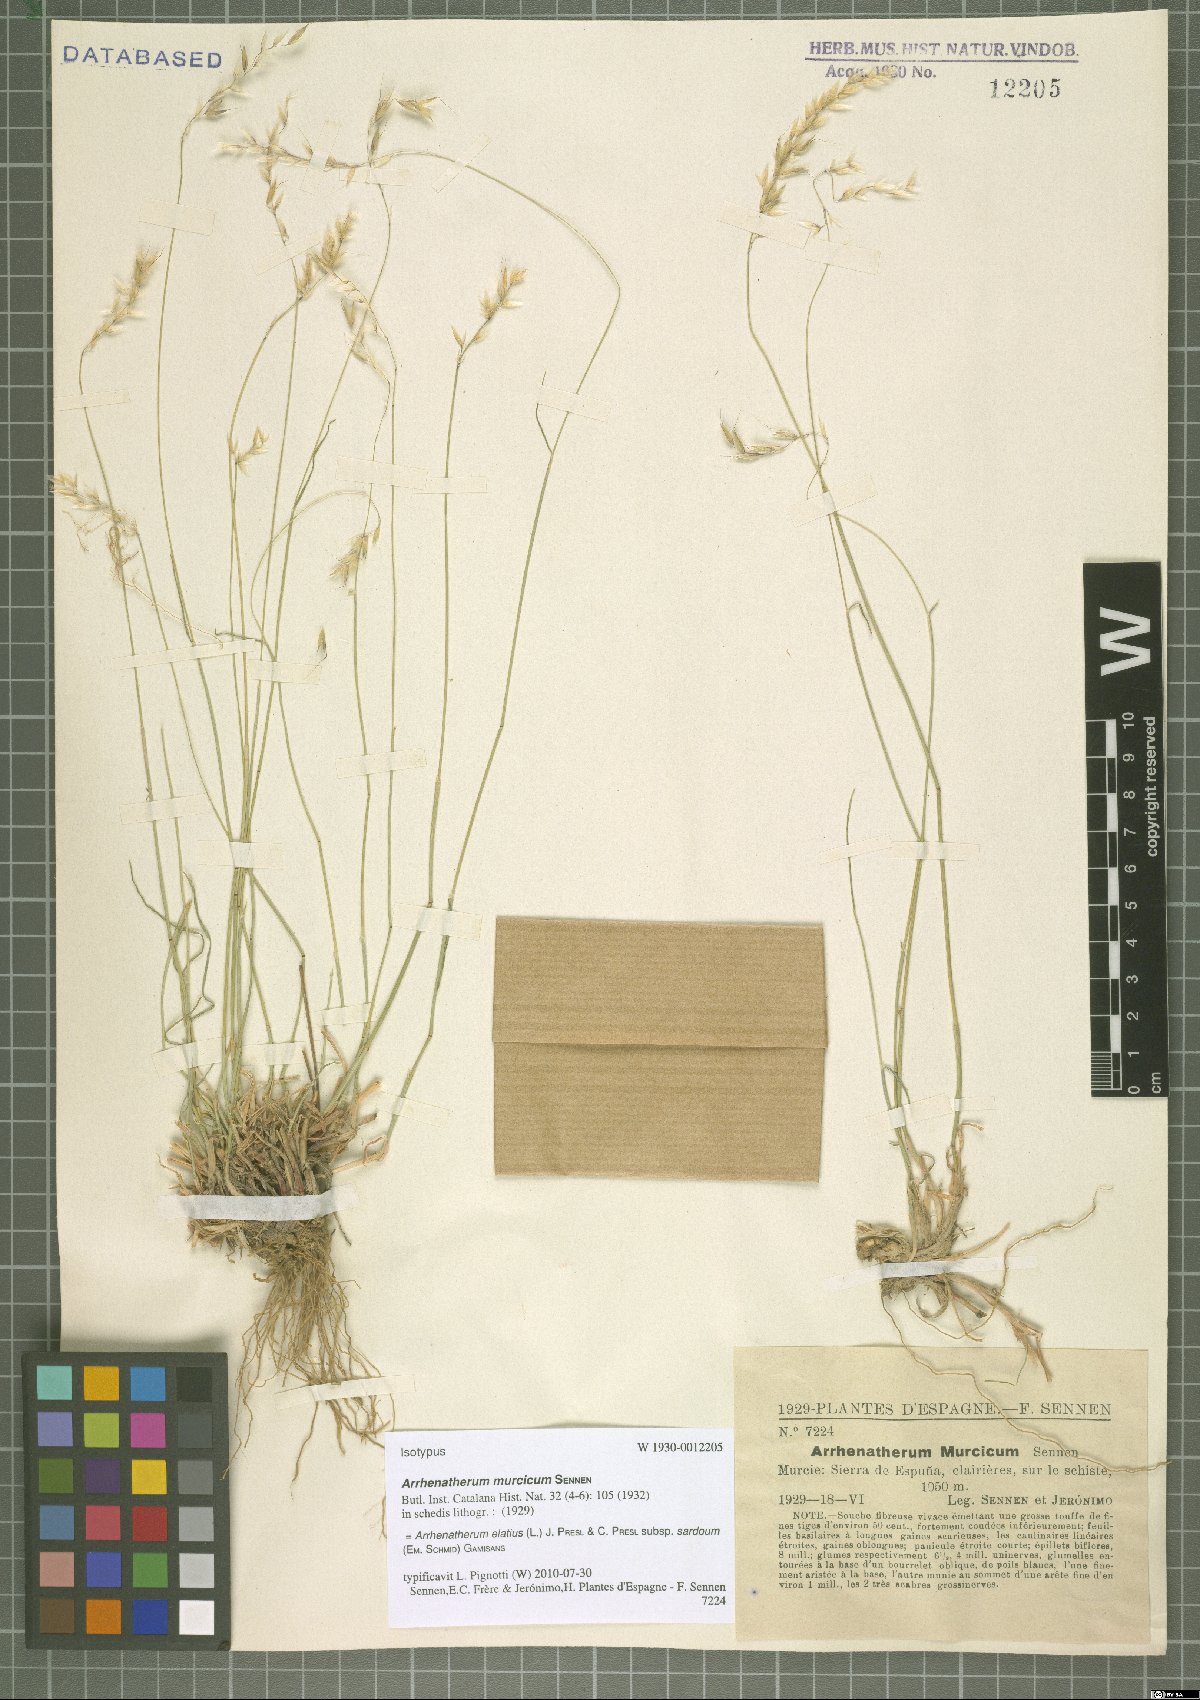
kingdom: Plantae
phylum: Tracheophyta
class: Liliopsida
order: Poales
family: Poaceae
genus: Arrhenatherum
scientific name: Arrhenatherum elatius
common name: Tall oatgrass
